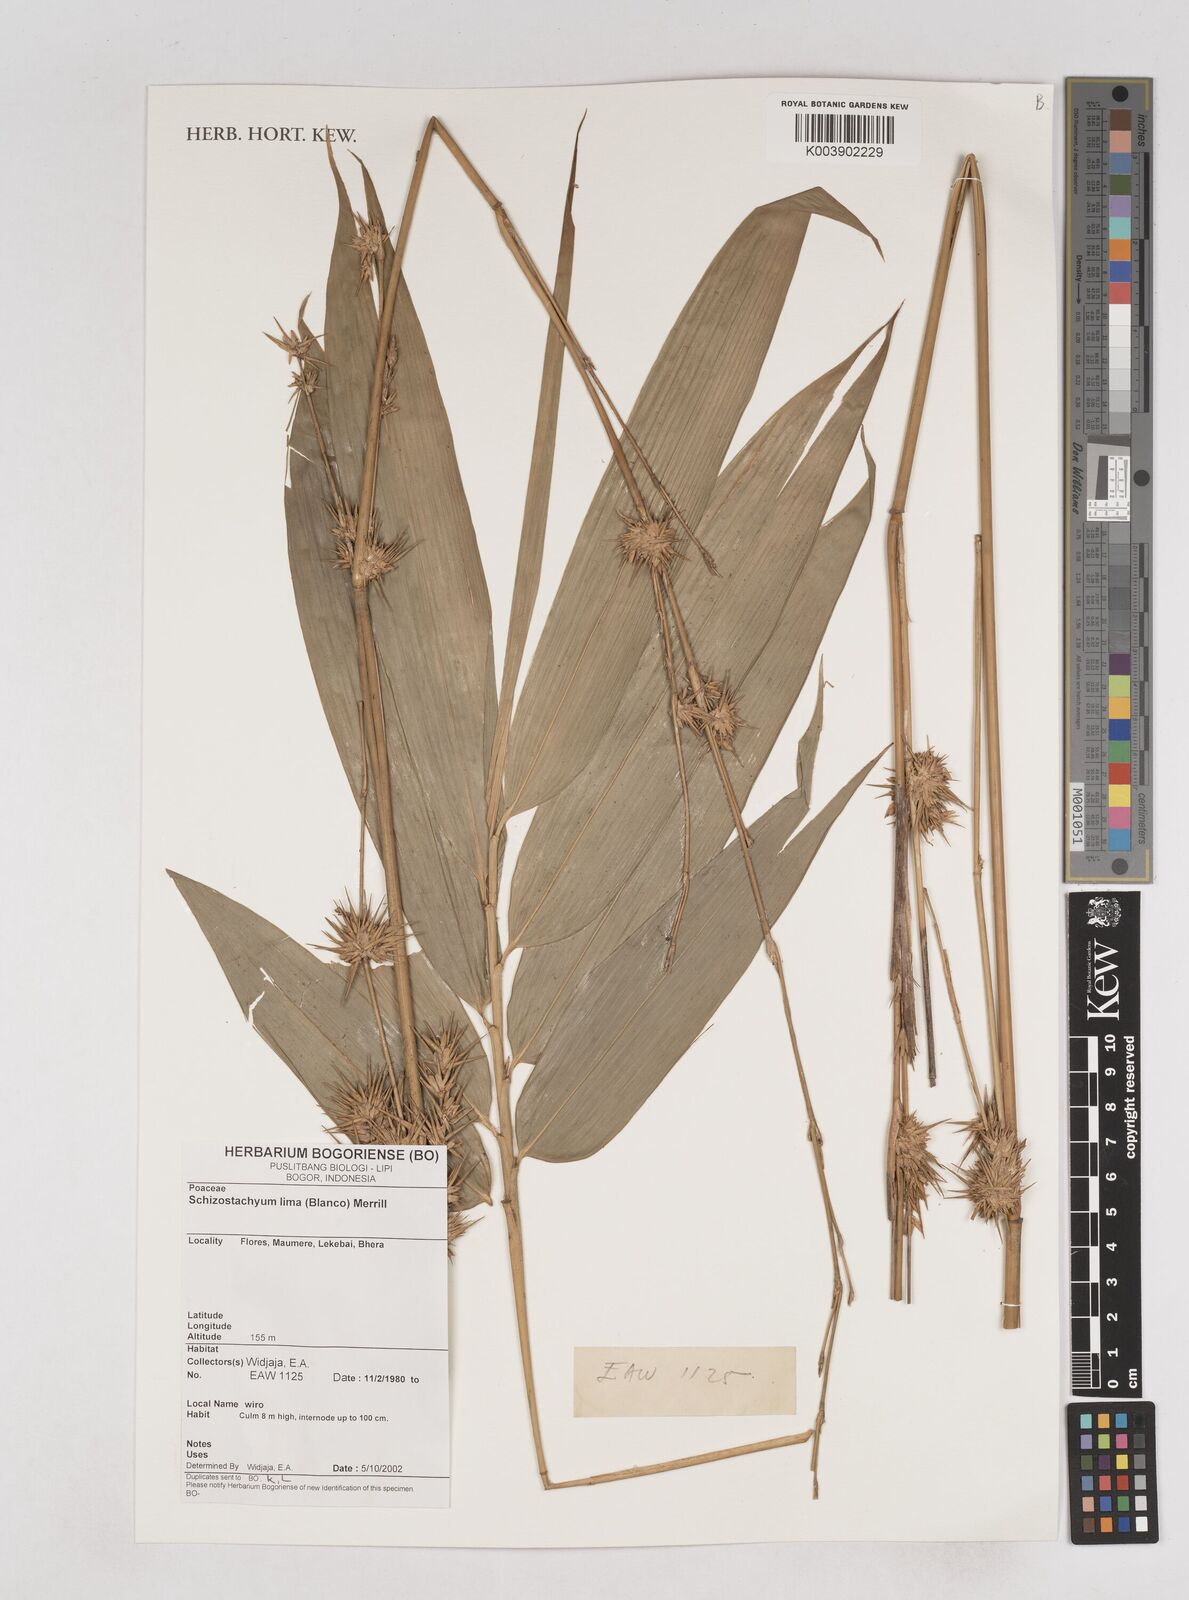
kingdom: Plantae
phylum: Tracheophyta
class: Liliopsida
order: Poales
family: Poaceae
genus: Schizostachyum
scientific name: Schizostachyum lima
